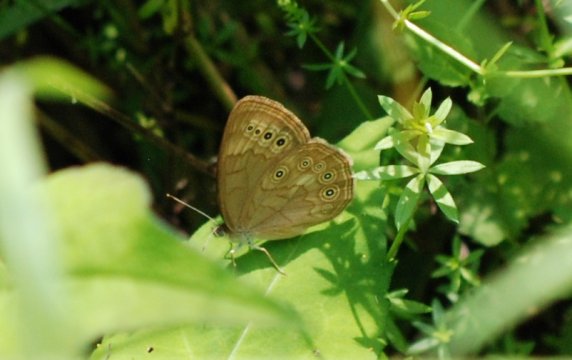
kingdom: Animalia
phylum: Arthropoda
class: Insecta
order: Lepidoptera
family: Nymphalidae
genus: Lethe
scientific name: Lethe eurydice
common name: Eyed Brown
